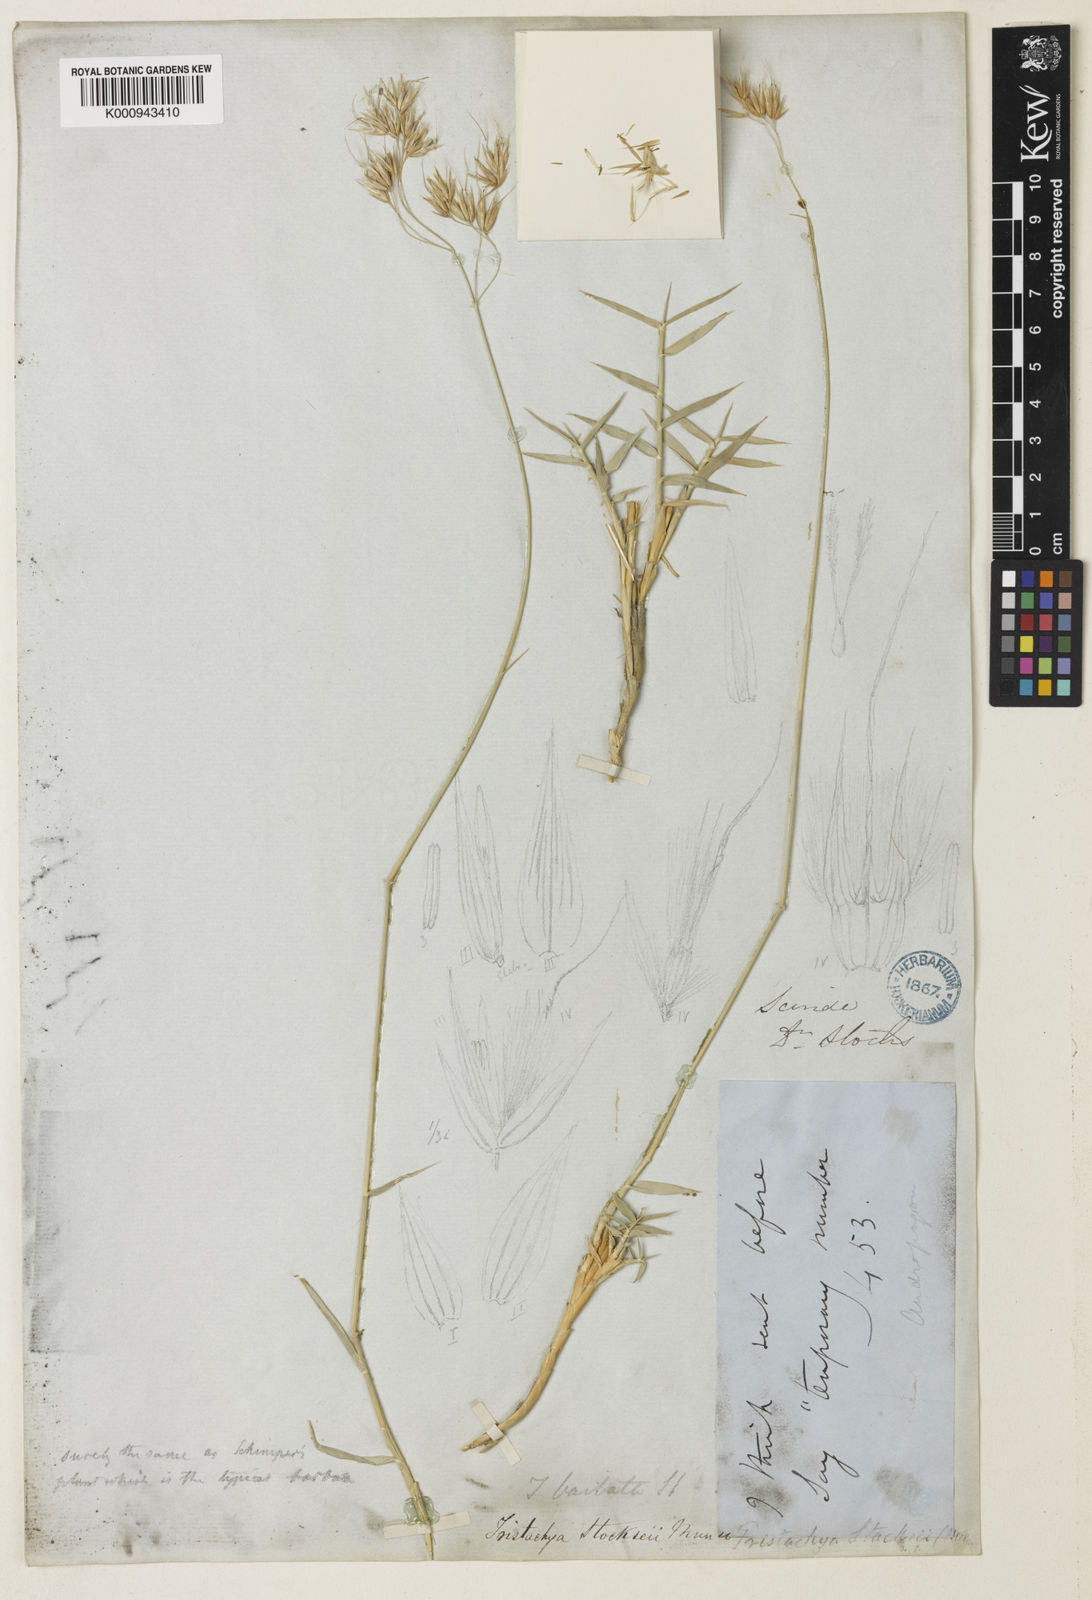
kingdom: Plantae
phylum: Tracheophyta
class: Liliopsida
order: Poales
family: Poaceae
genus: Danthoniopsis
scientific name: Danthoniopsis stocksii
